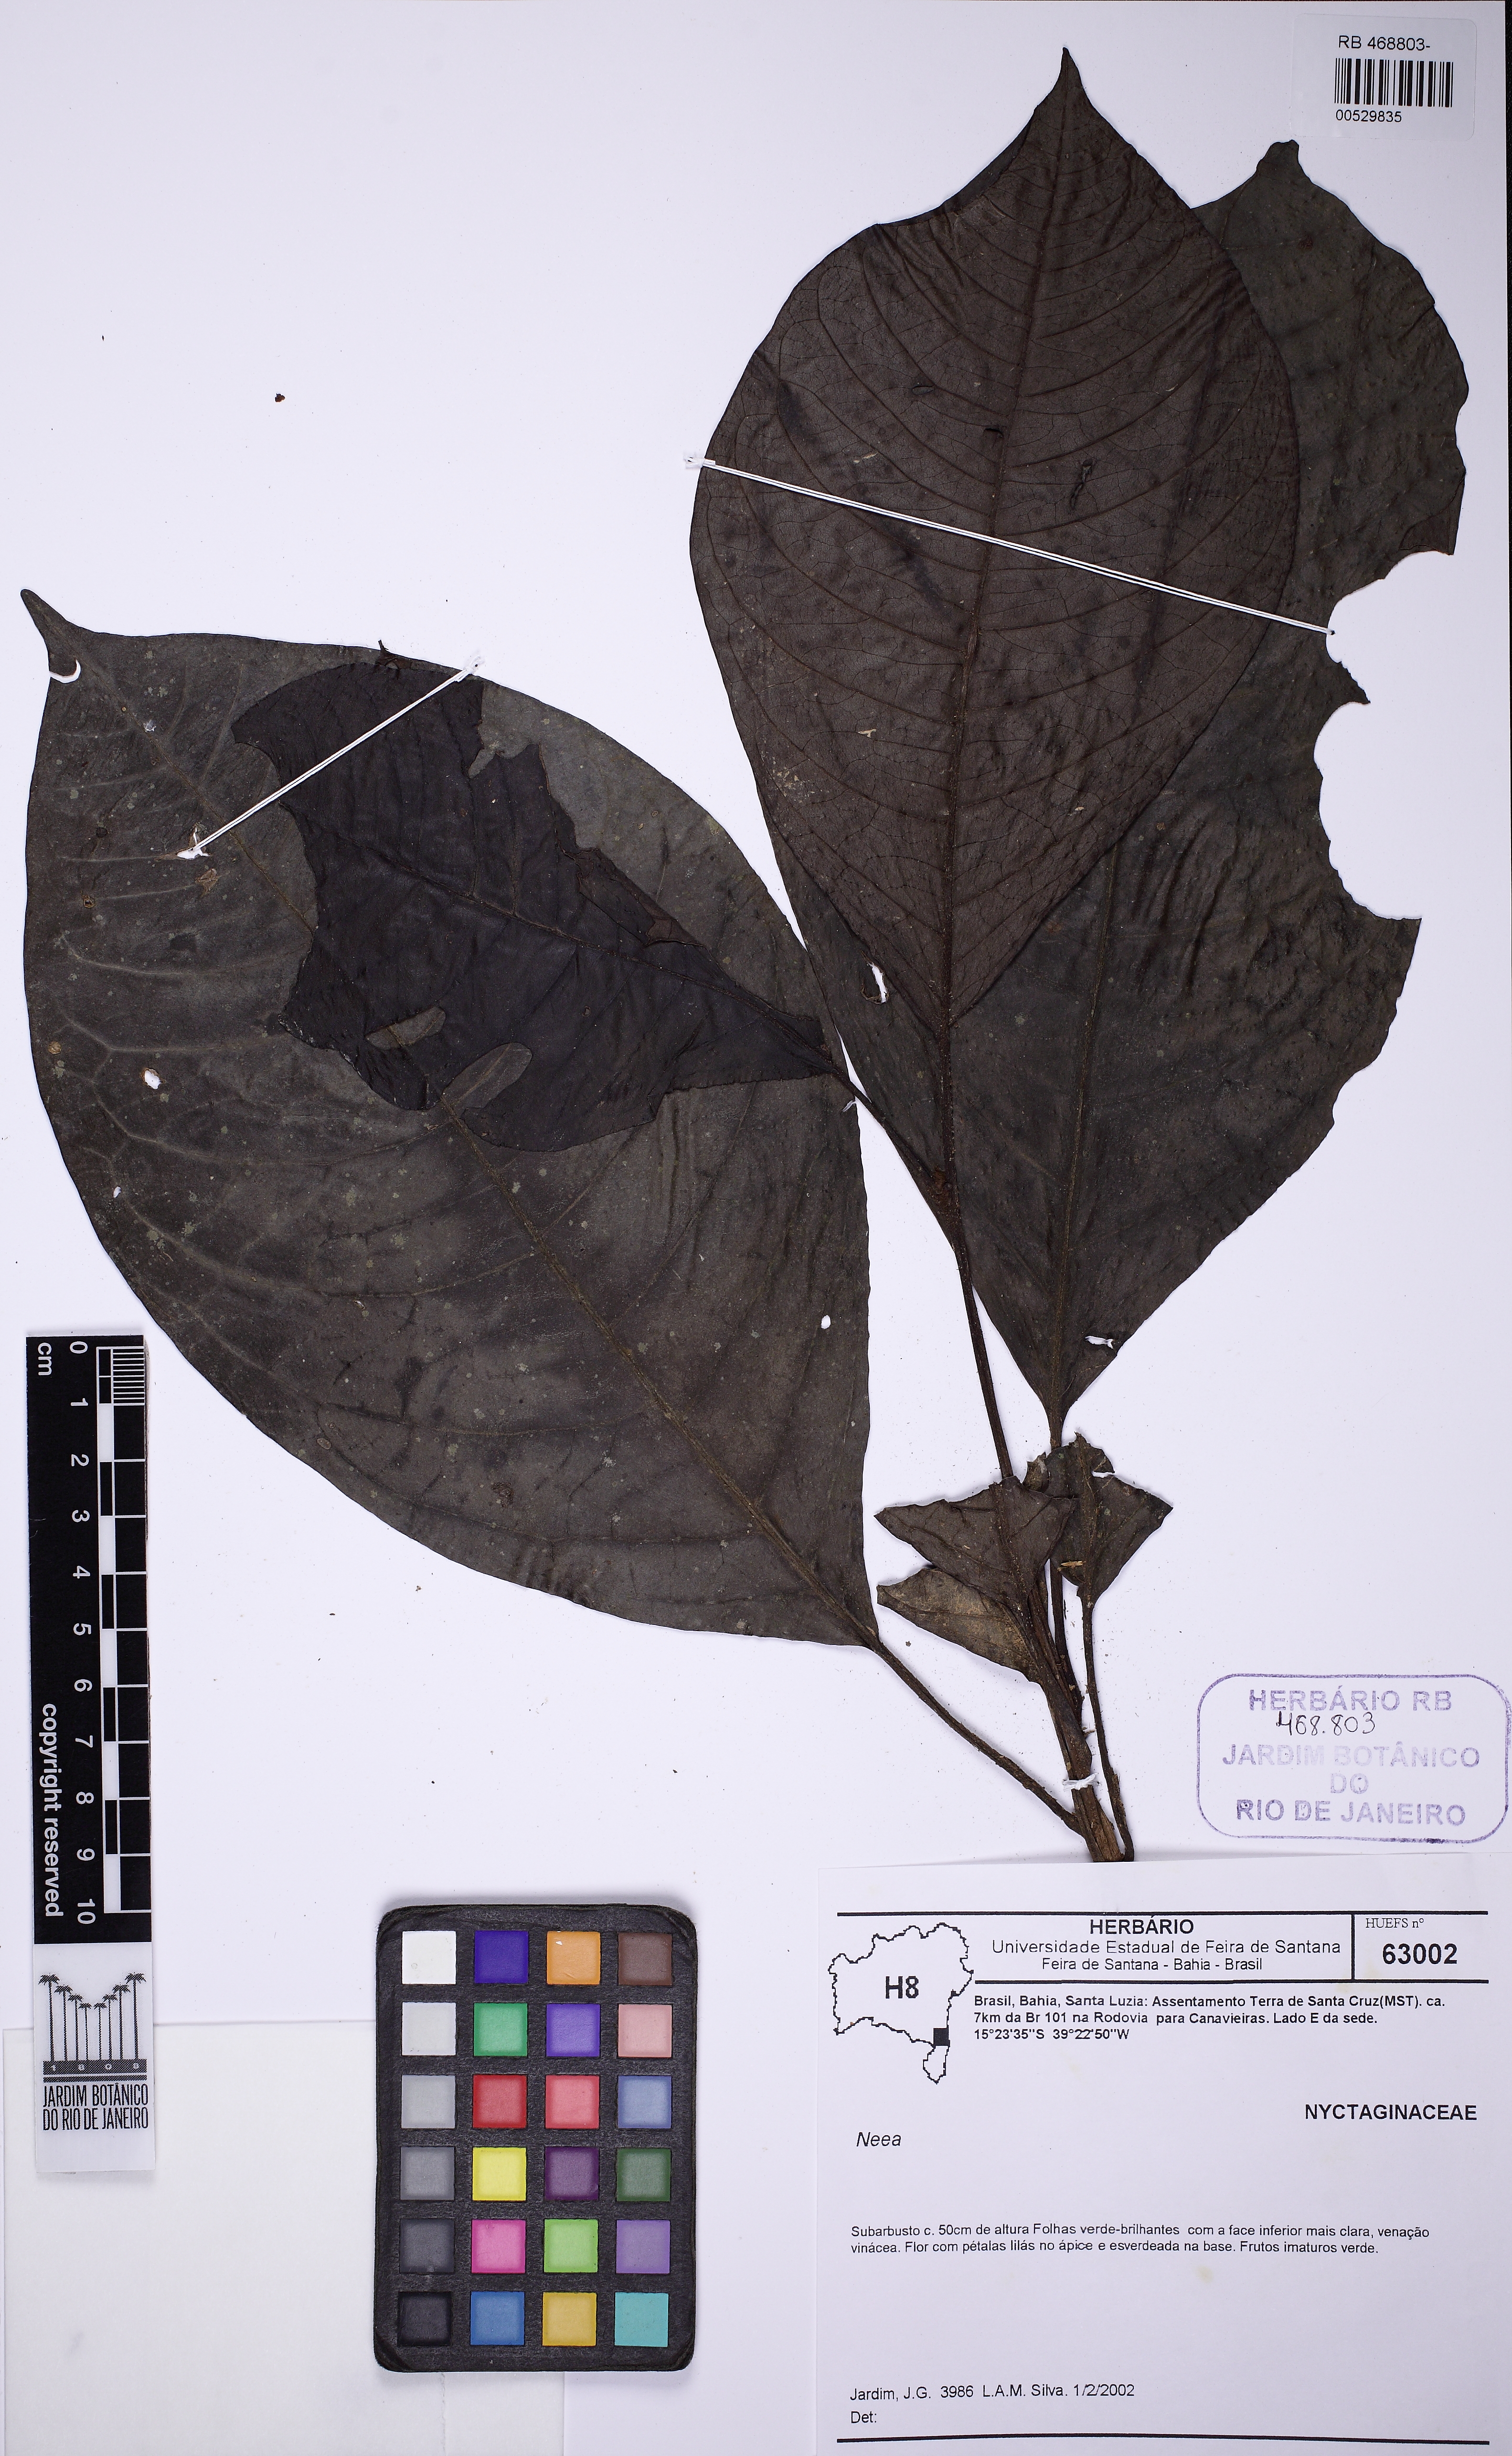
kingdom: Plantae
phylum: Tracheophyta
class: Magnoliopsida
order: Caryophyllales
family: Nyctaginaceae
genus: Neea
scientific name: Neea
